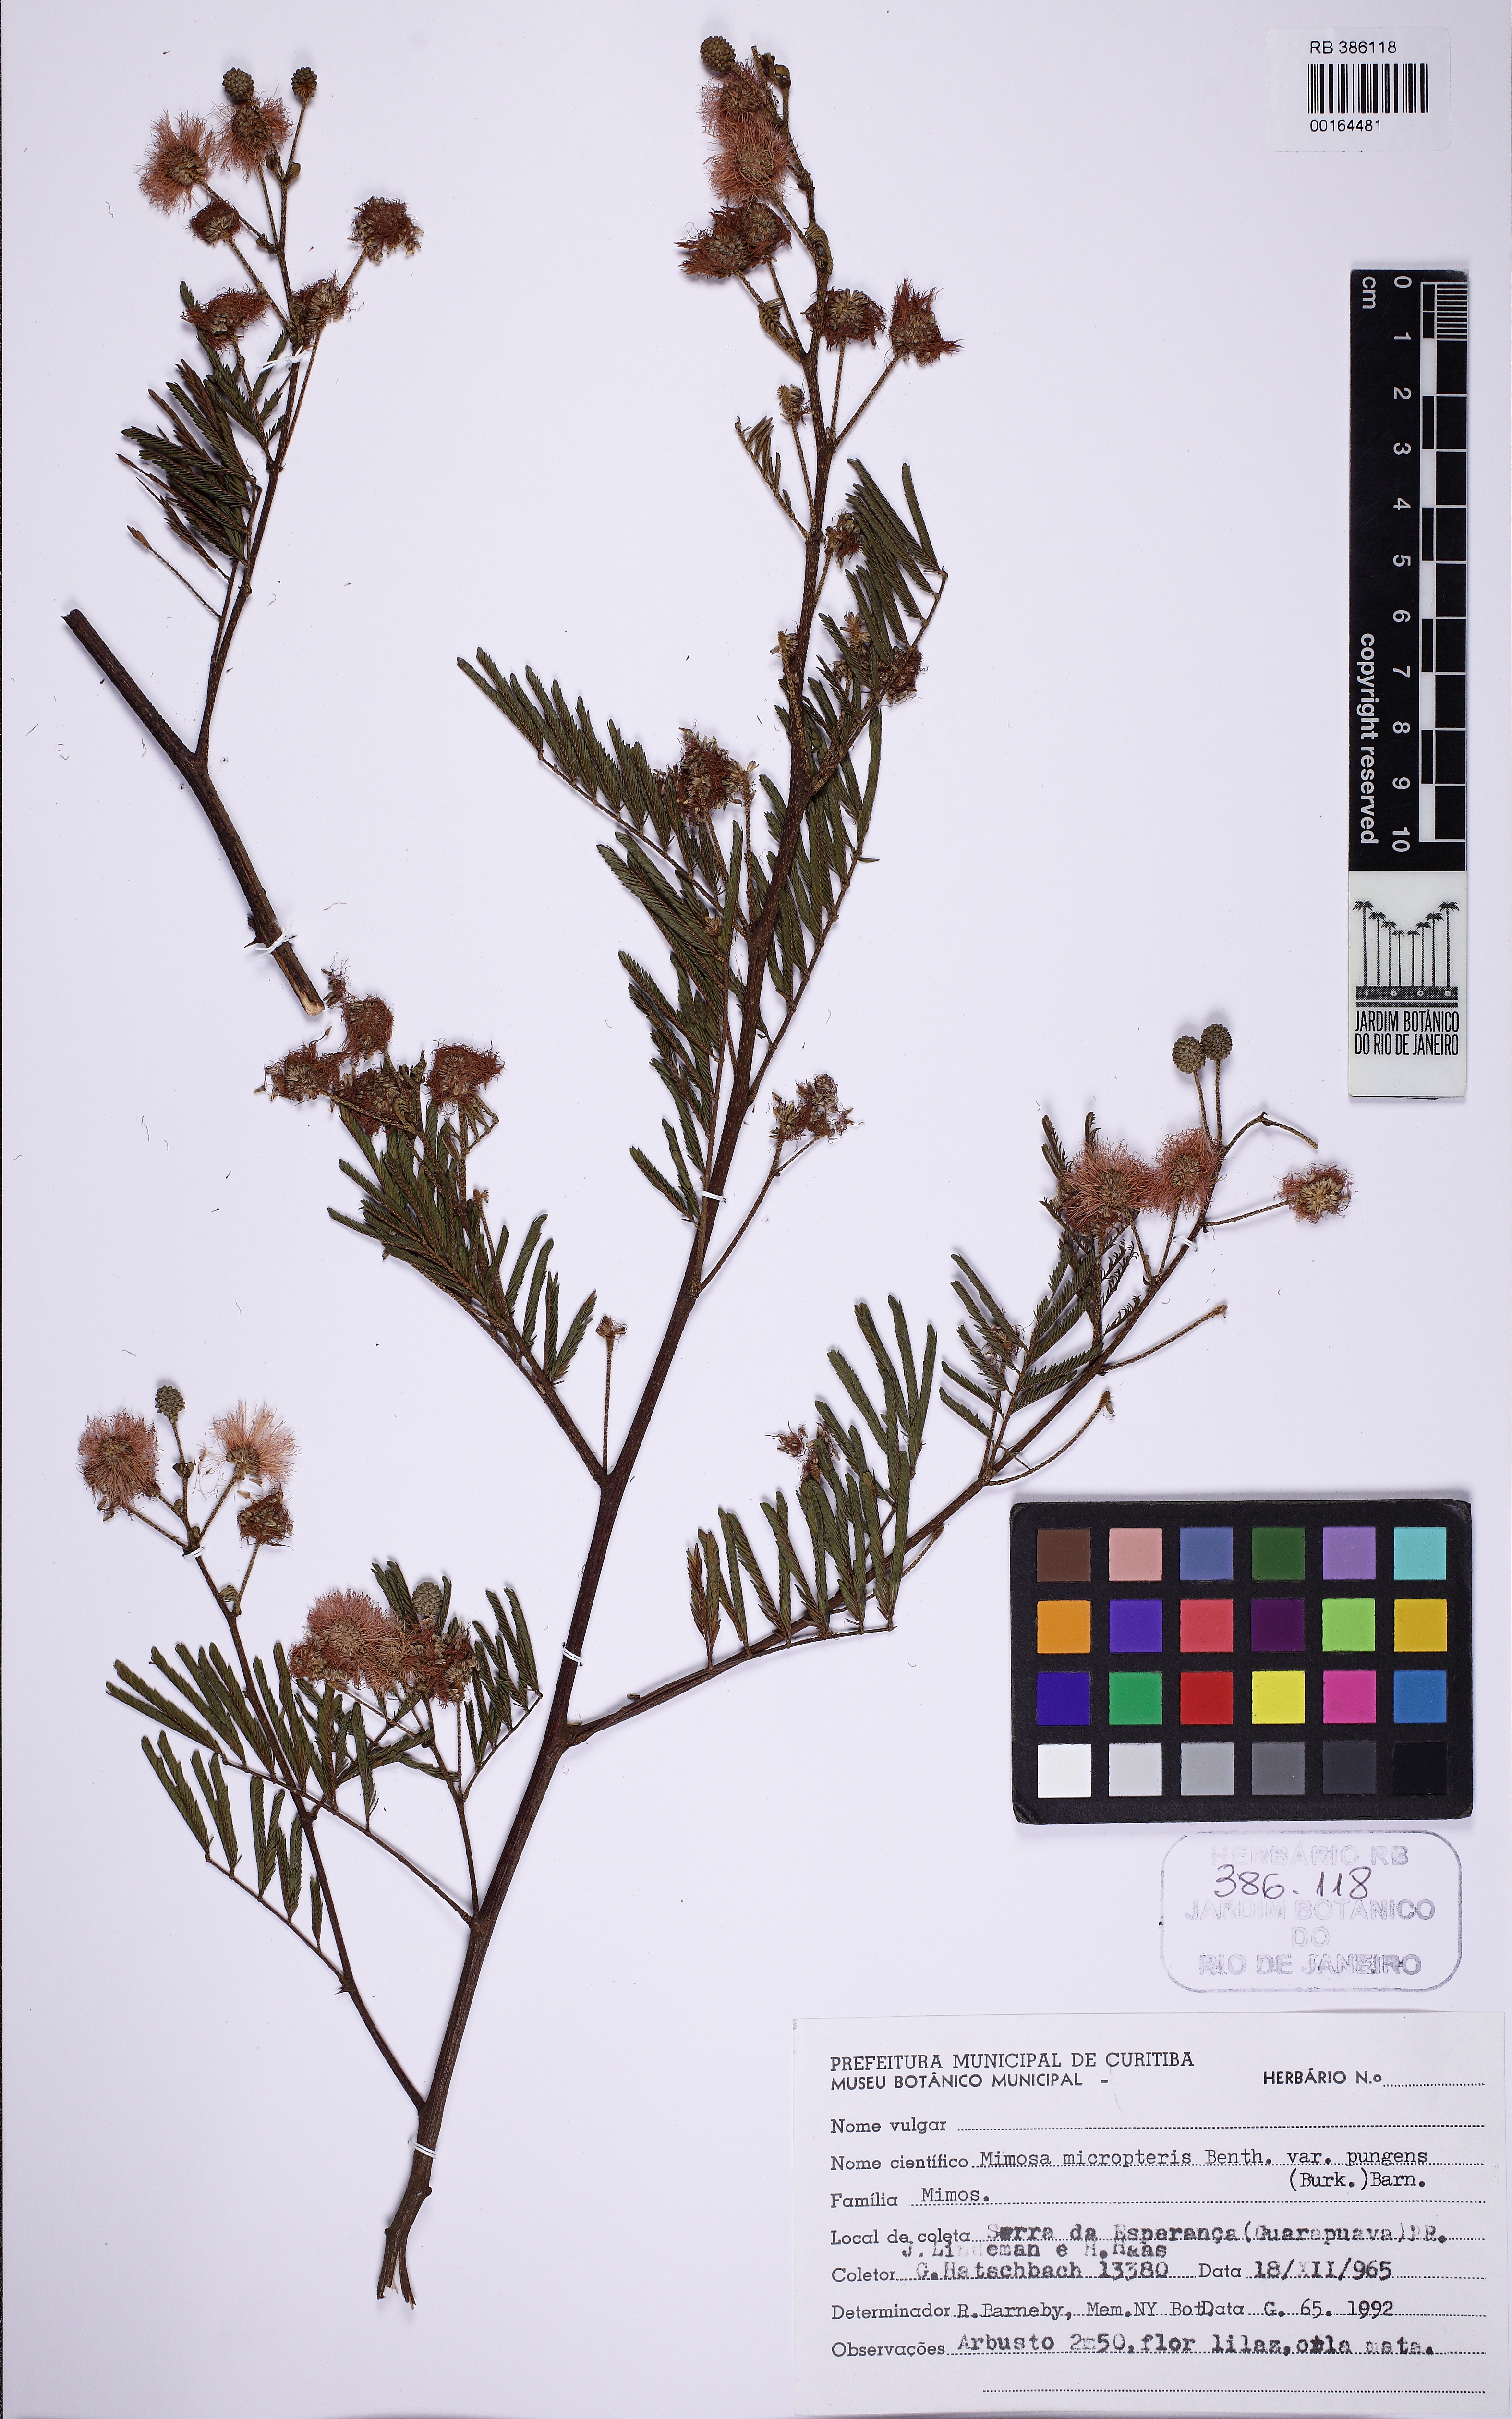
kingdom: Plantae
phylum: Tracheophyta
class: Magnoliopsida
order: Fabales
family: Fabaceae
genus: Mimosa
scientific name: Mimosa micropteris
